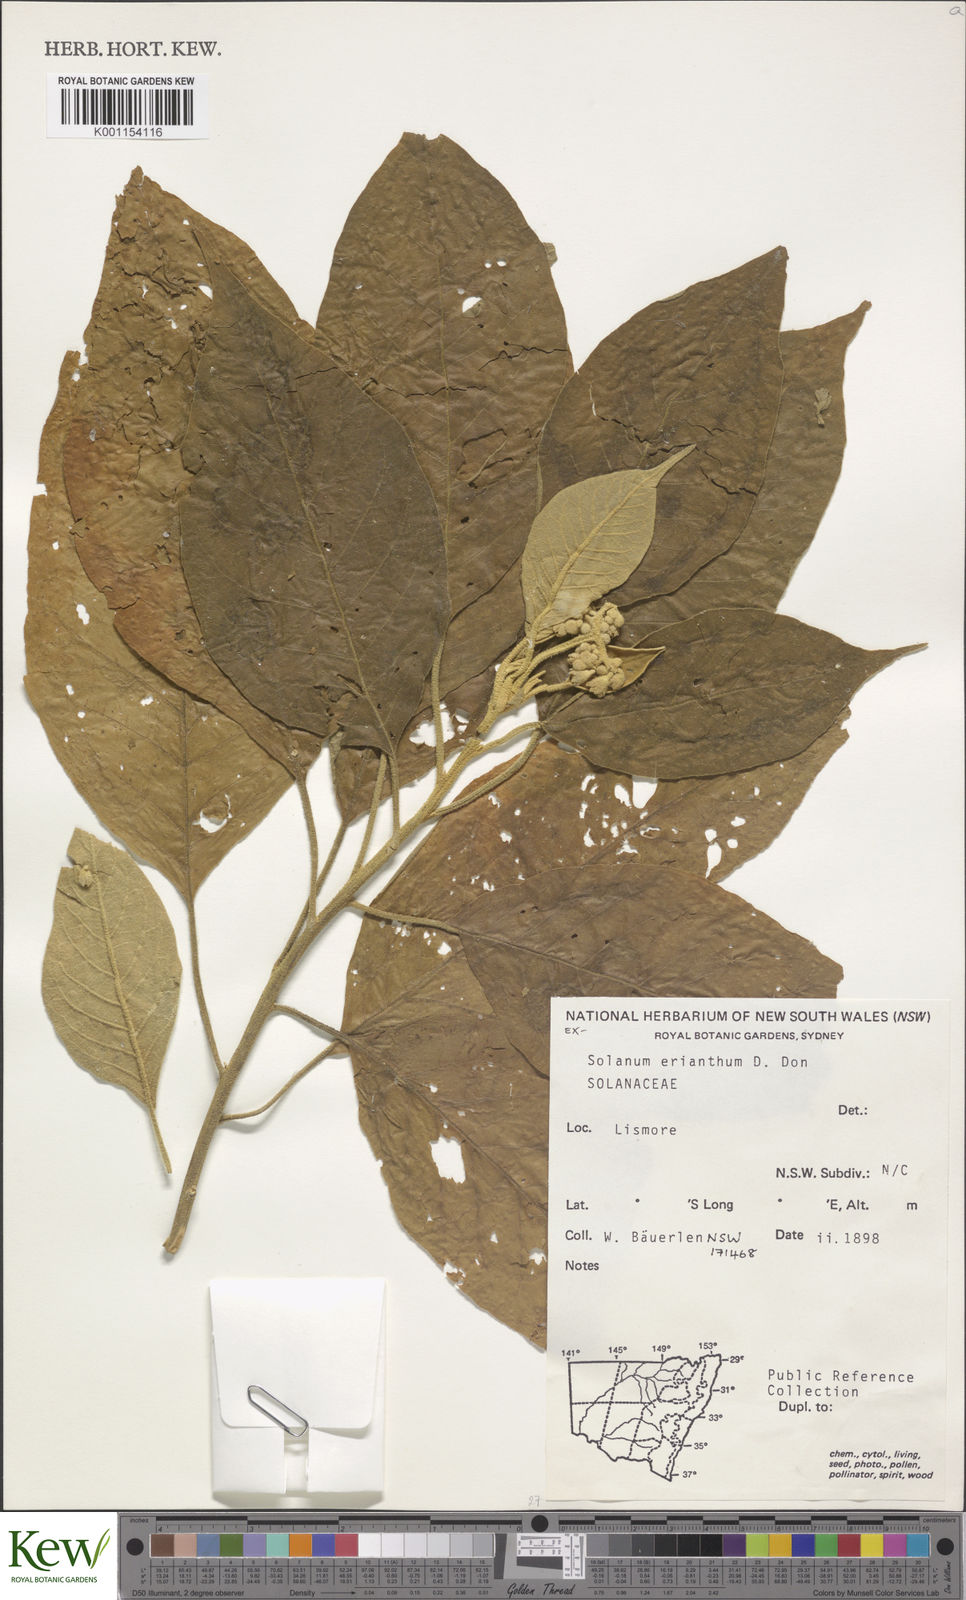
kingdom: Plantae
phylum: Tracheophyta
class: Magnoliopsida
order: Solanales
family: Solanaceae
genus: Solanum
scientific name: Solanum erianthum
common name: Tobacco-tree
